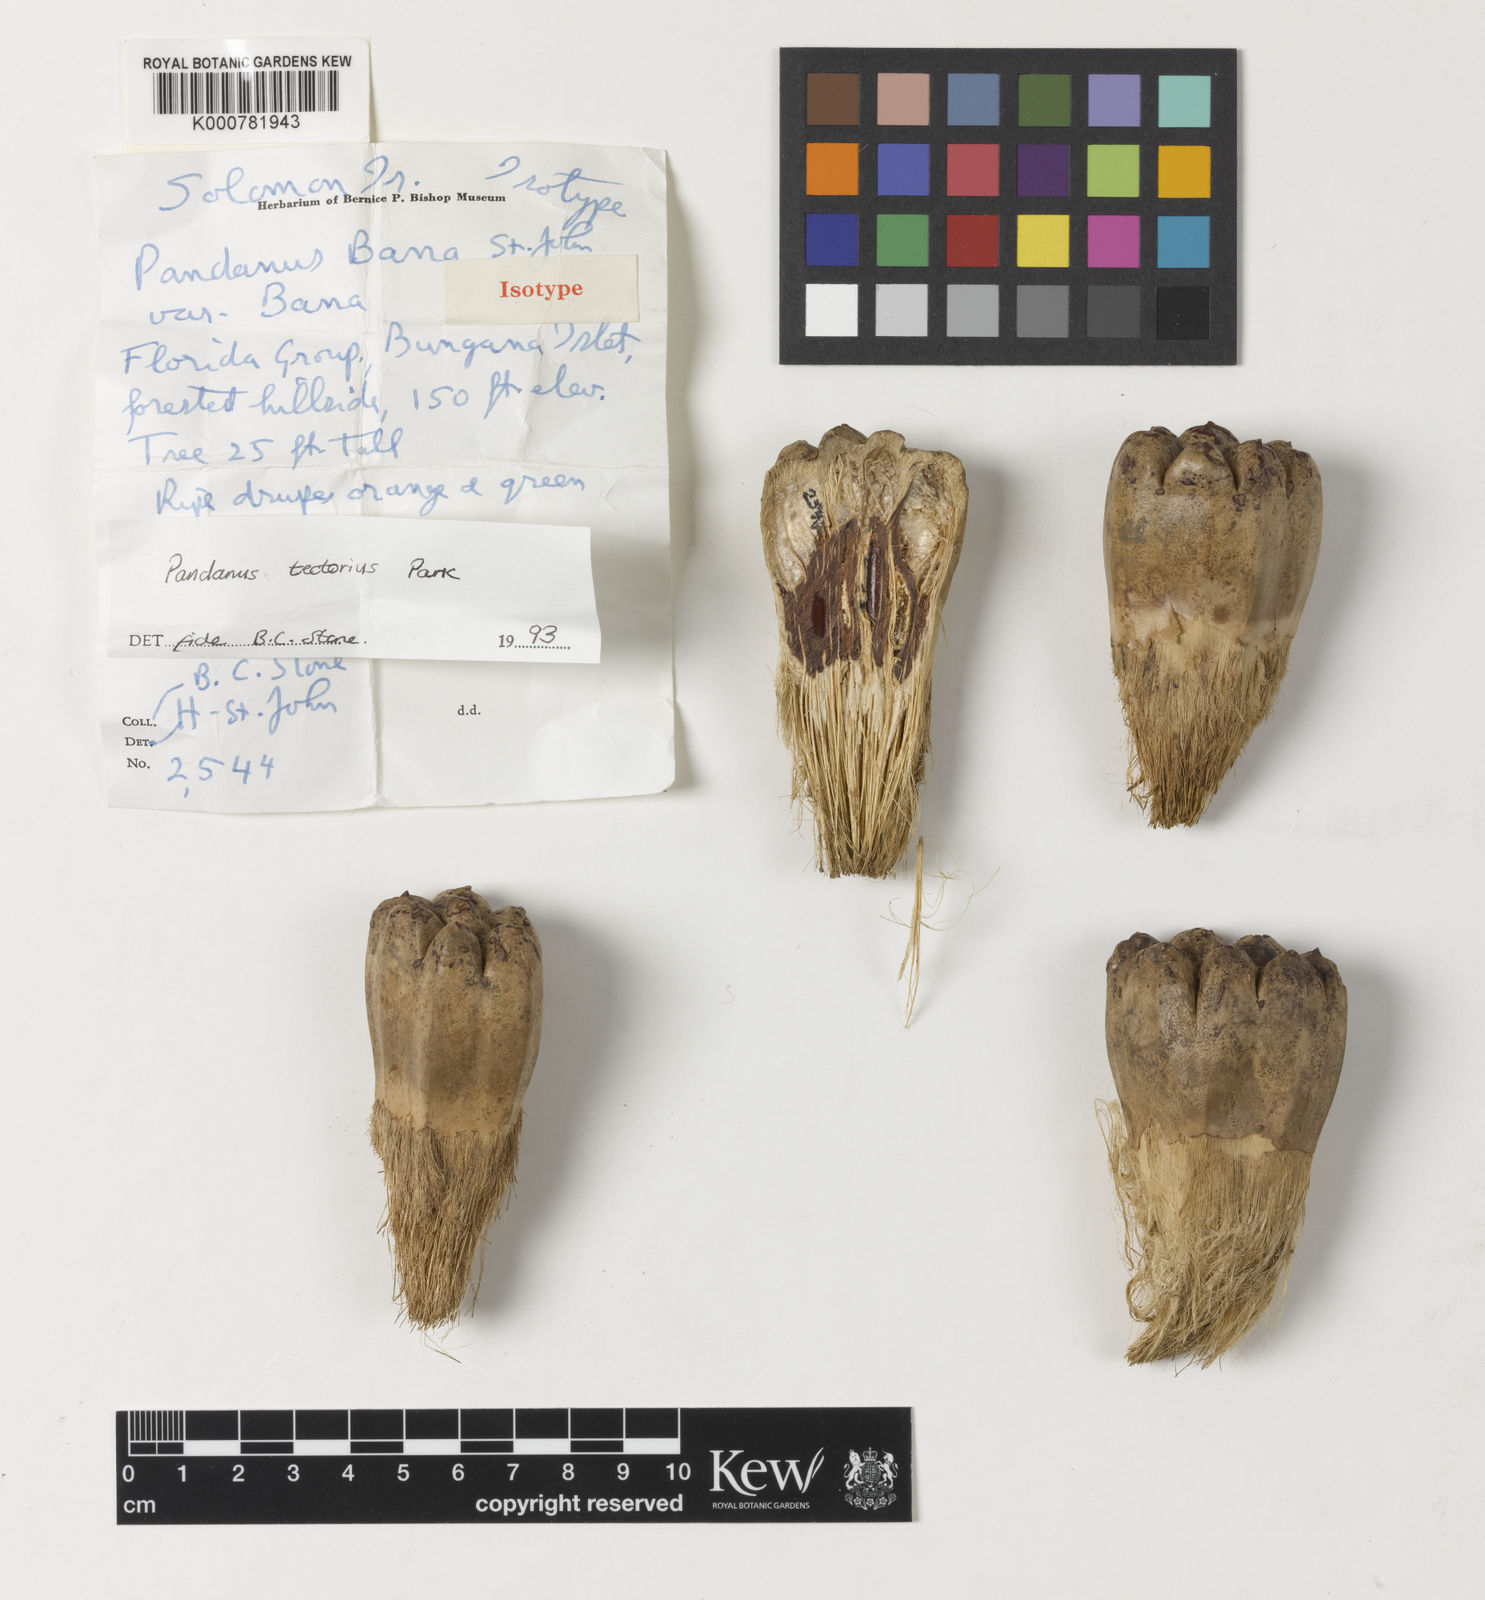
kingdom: Plantae
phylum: Tracheophyta
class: Liliopsida
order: Pandanales
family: Pandanaceae
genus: Pandanus
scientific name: Pandanus
